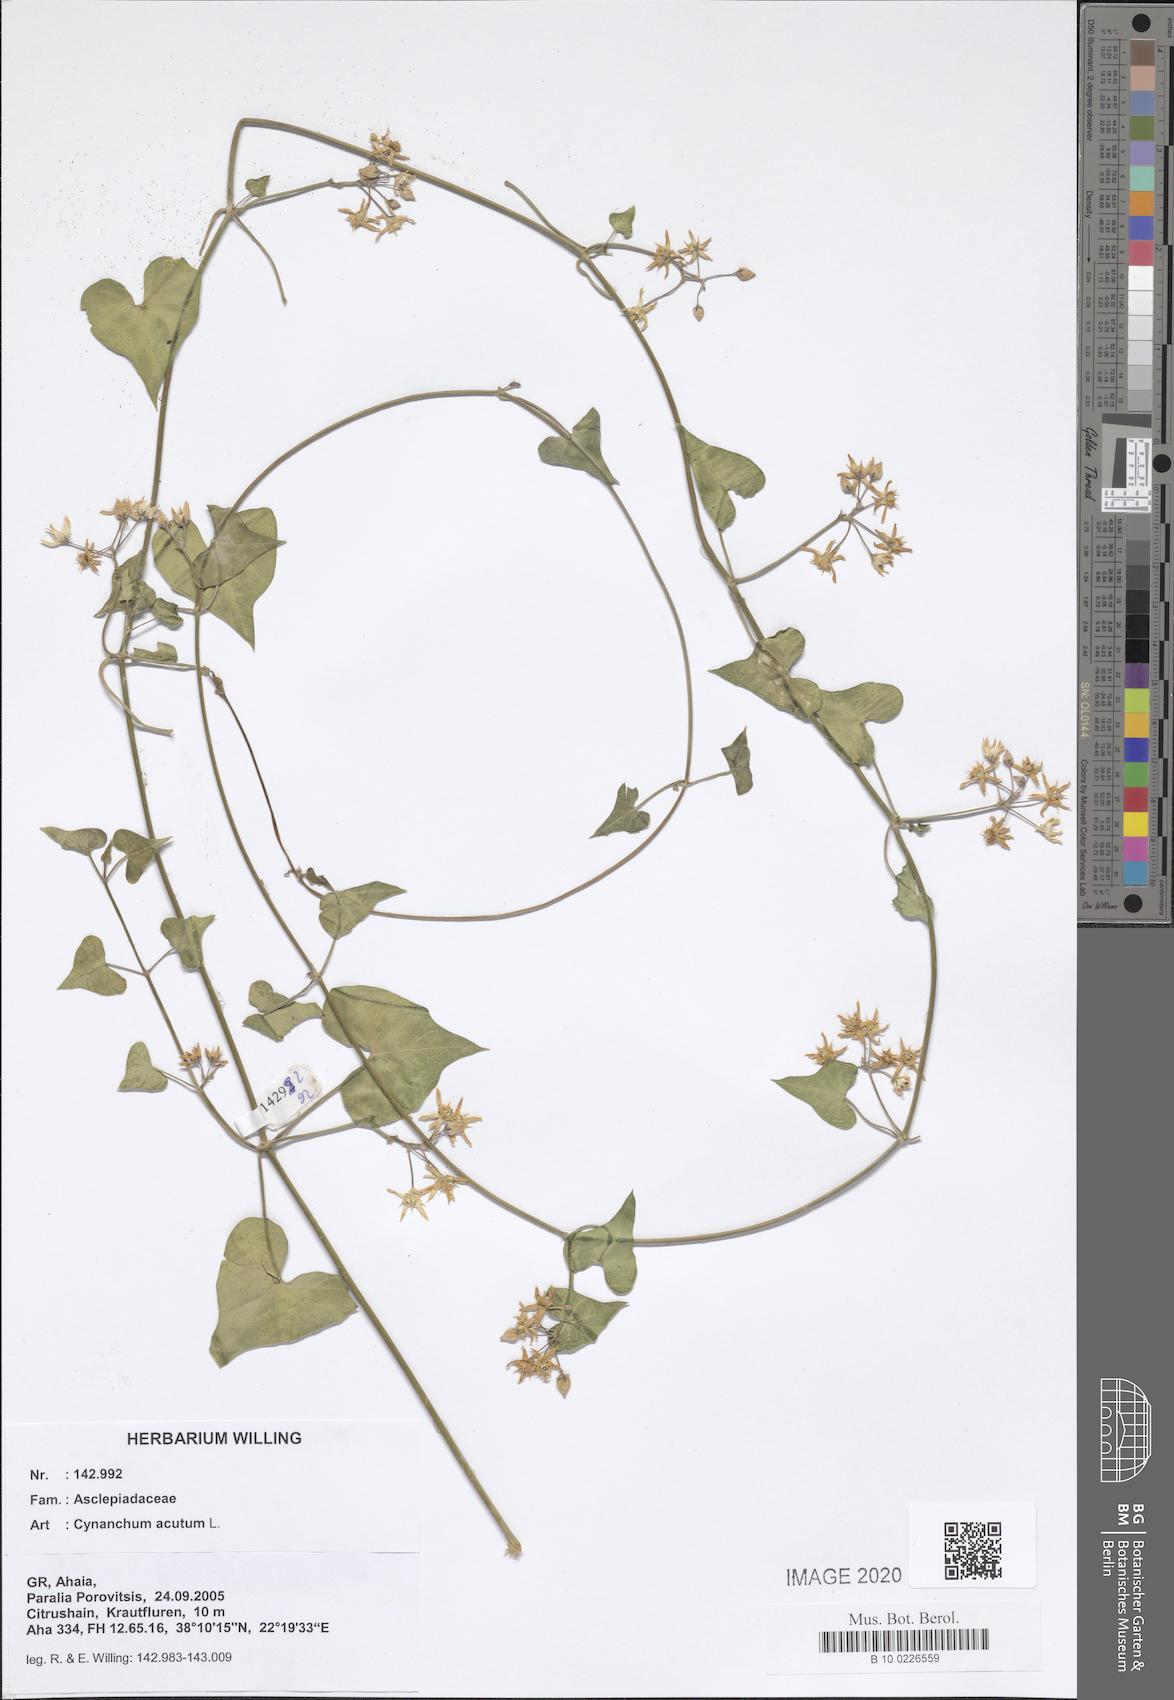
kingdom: Plantae
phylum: Tracheophyta
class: Magnoliopsida
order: Gentianales
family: Apocynaceae
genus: Cynanchum
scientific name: Cynanchum acutum
